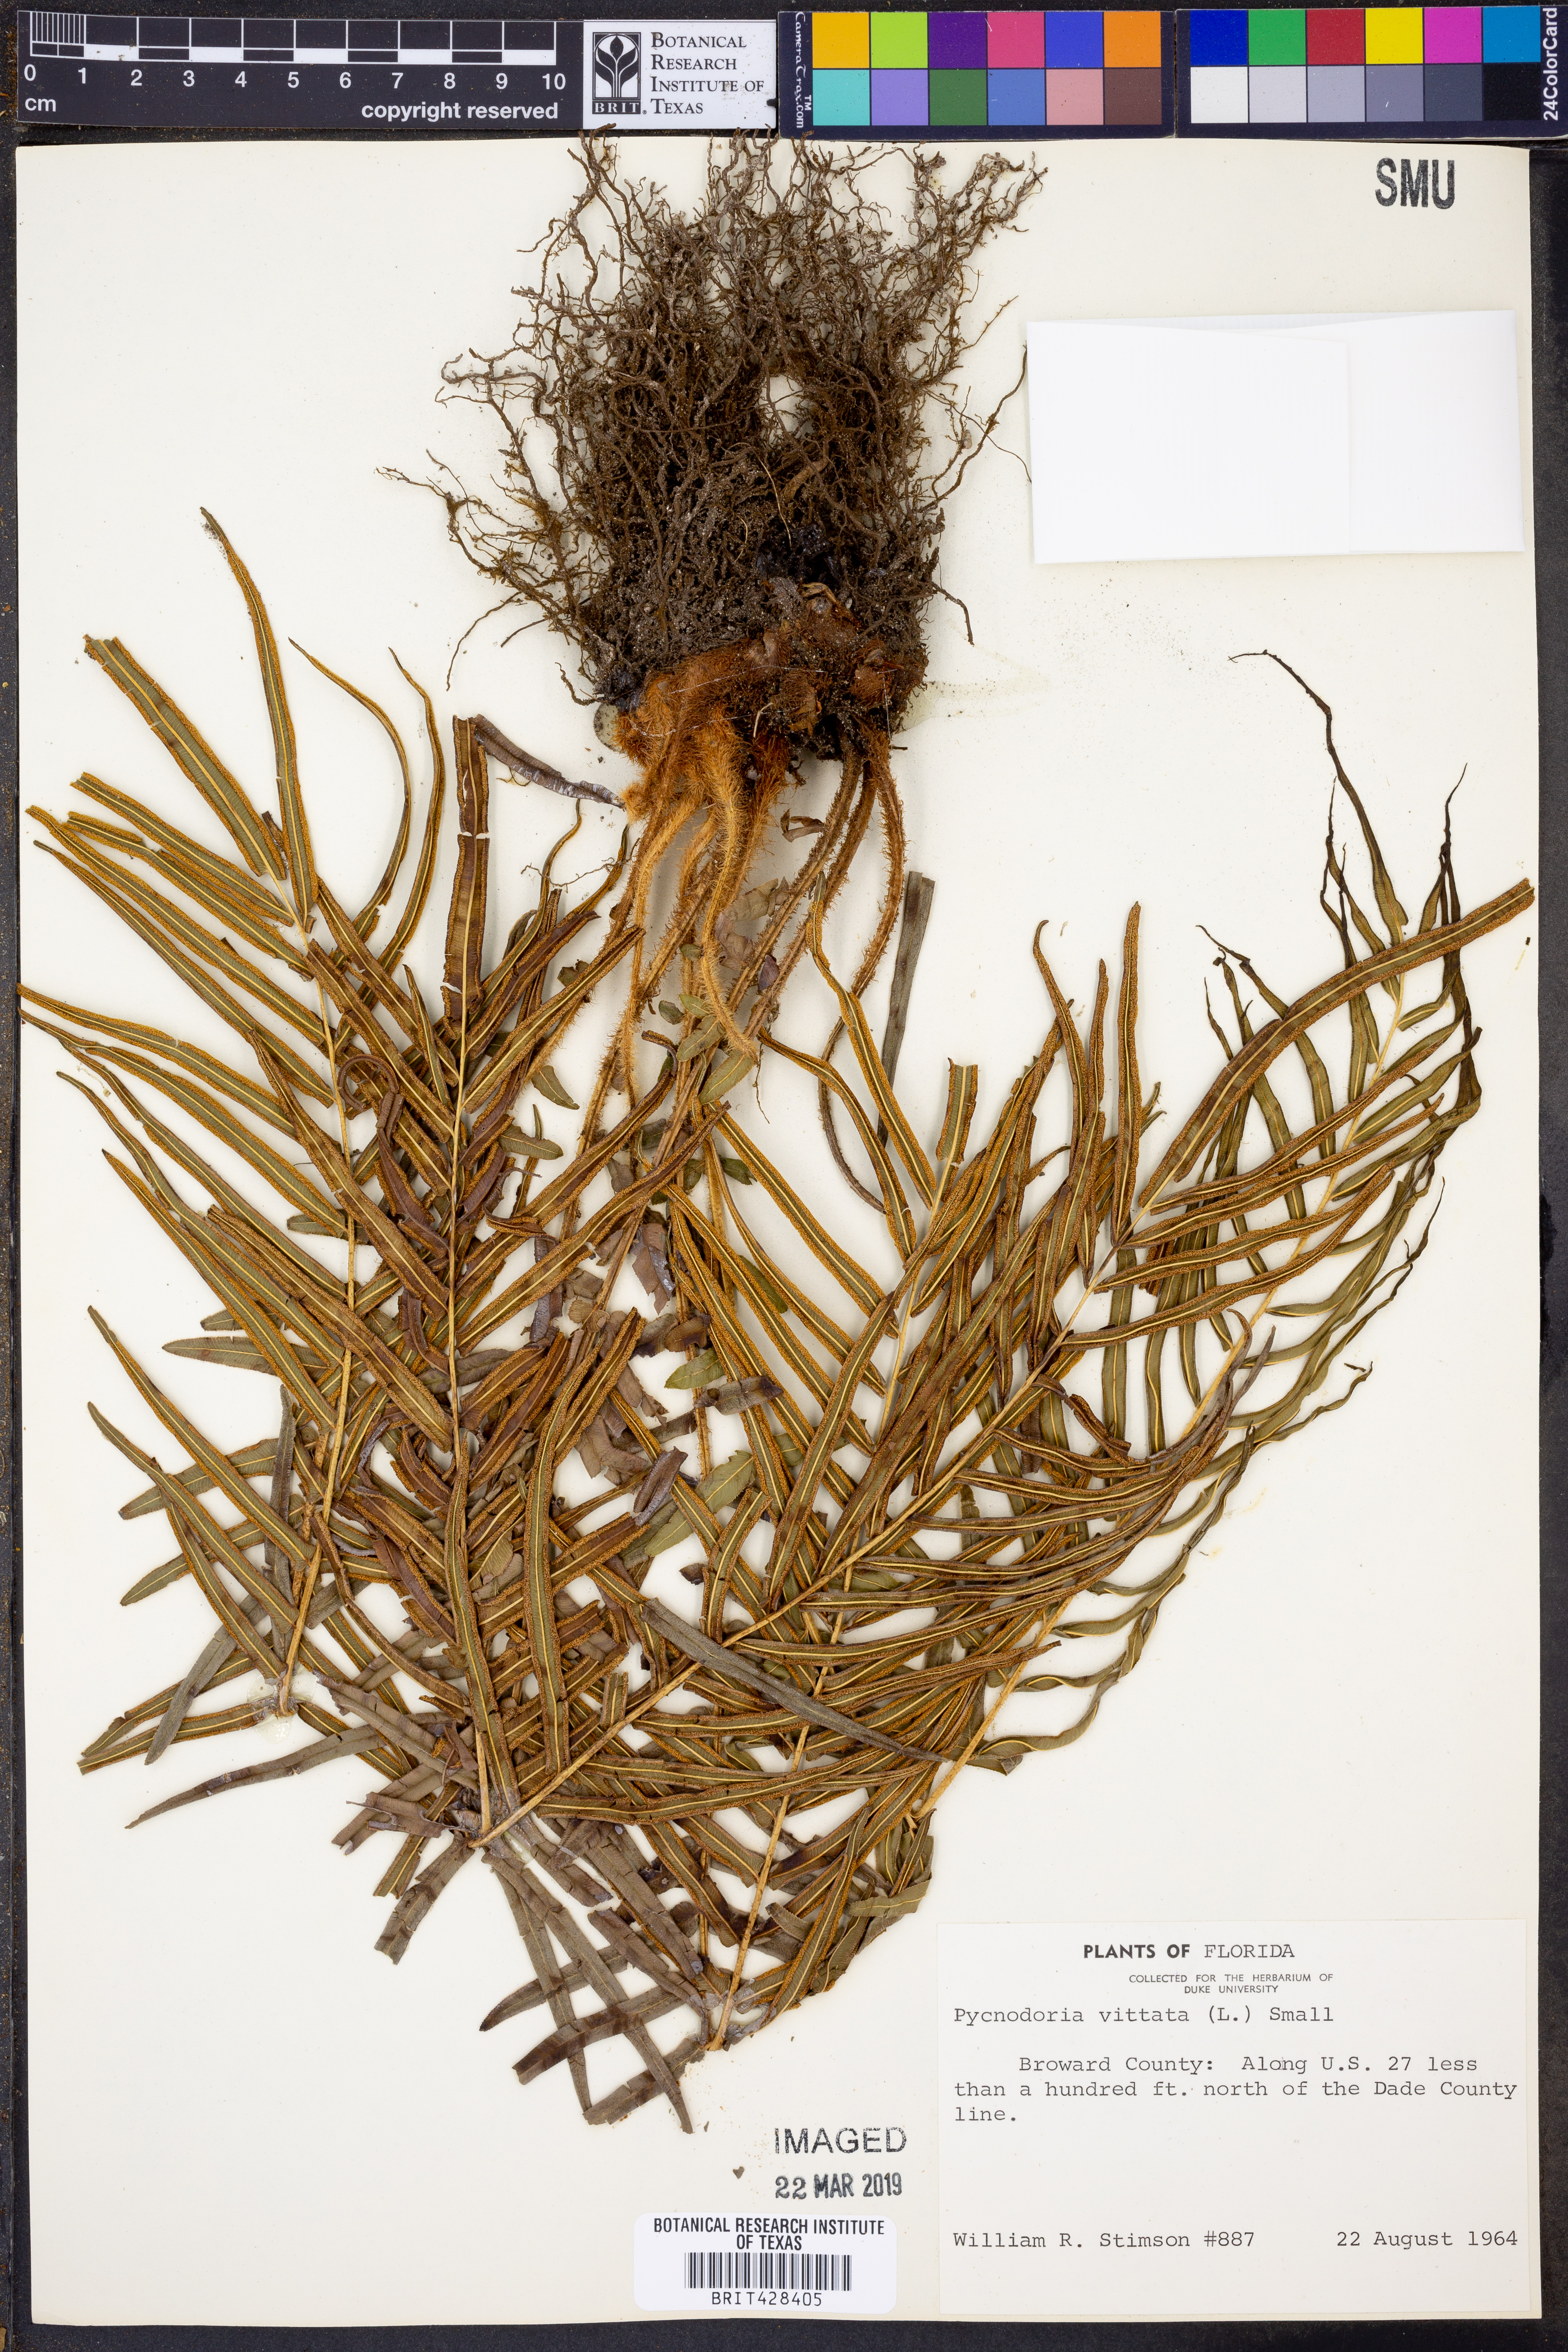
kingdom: Plantae
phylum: Tracheophyta
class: Polypodiopsida
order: Polypodiales
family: Pteridaceae
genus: Pteris
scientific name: Pteris vittata
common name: Ladder brake
